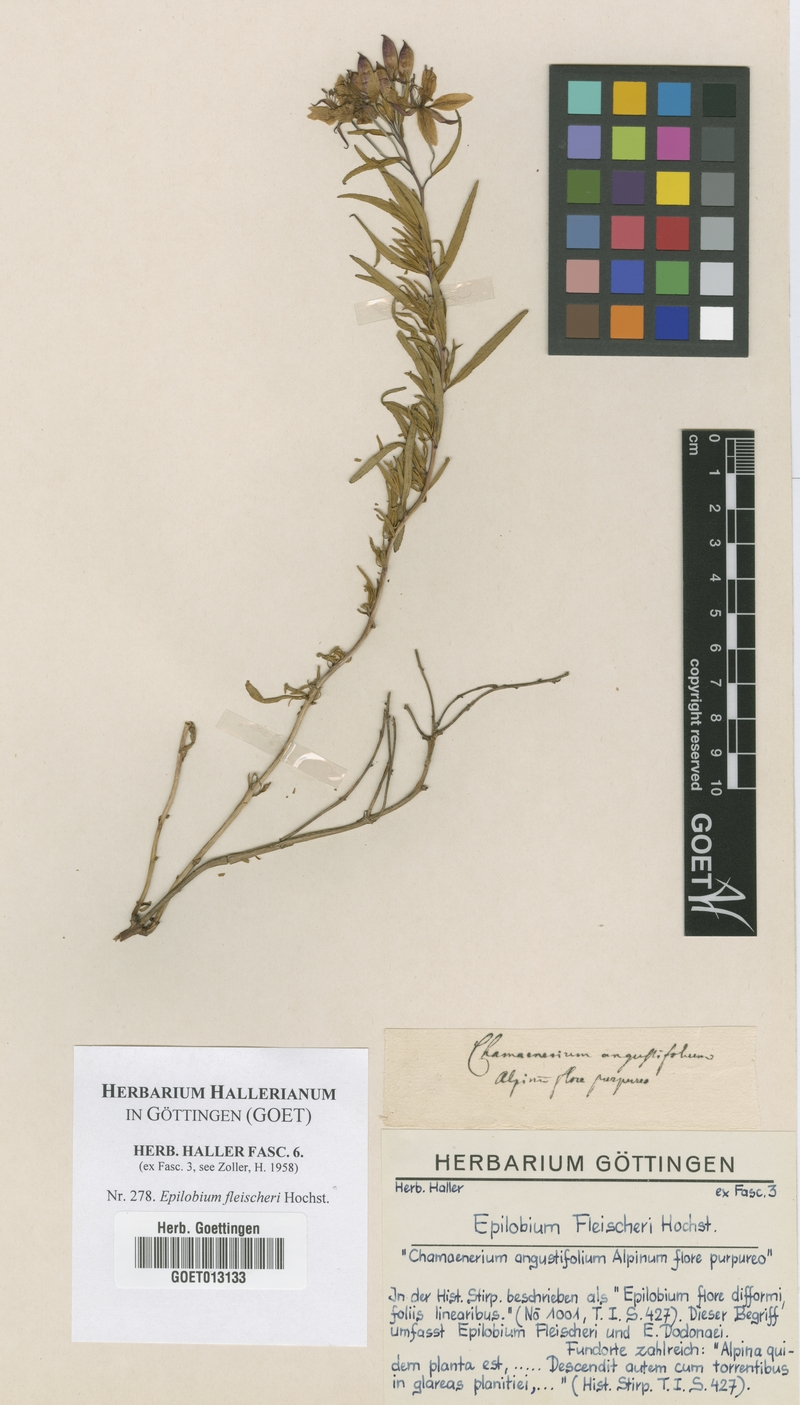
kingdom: Plantae
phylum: Tracheophyta
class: Magnoliopsida
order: Myrtales
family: Onagraceae
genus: Chamaenerion
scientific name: Chamaenerion fleischeri
